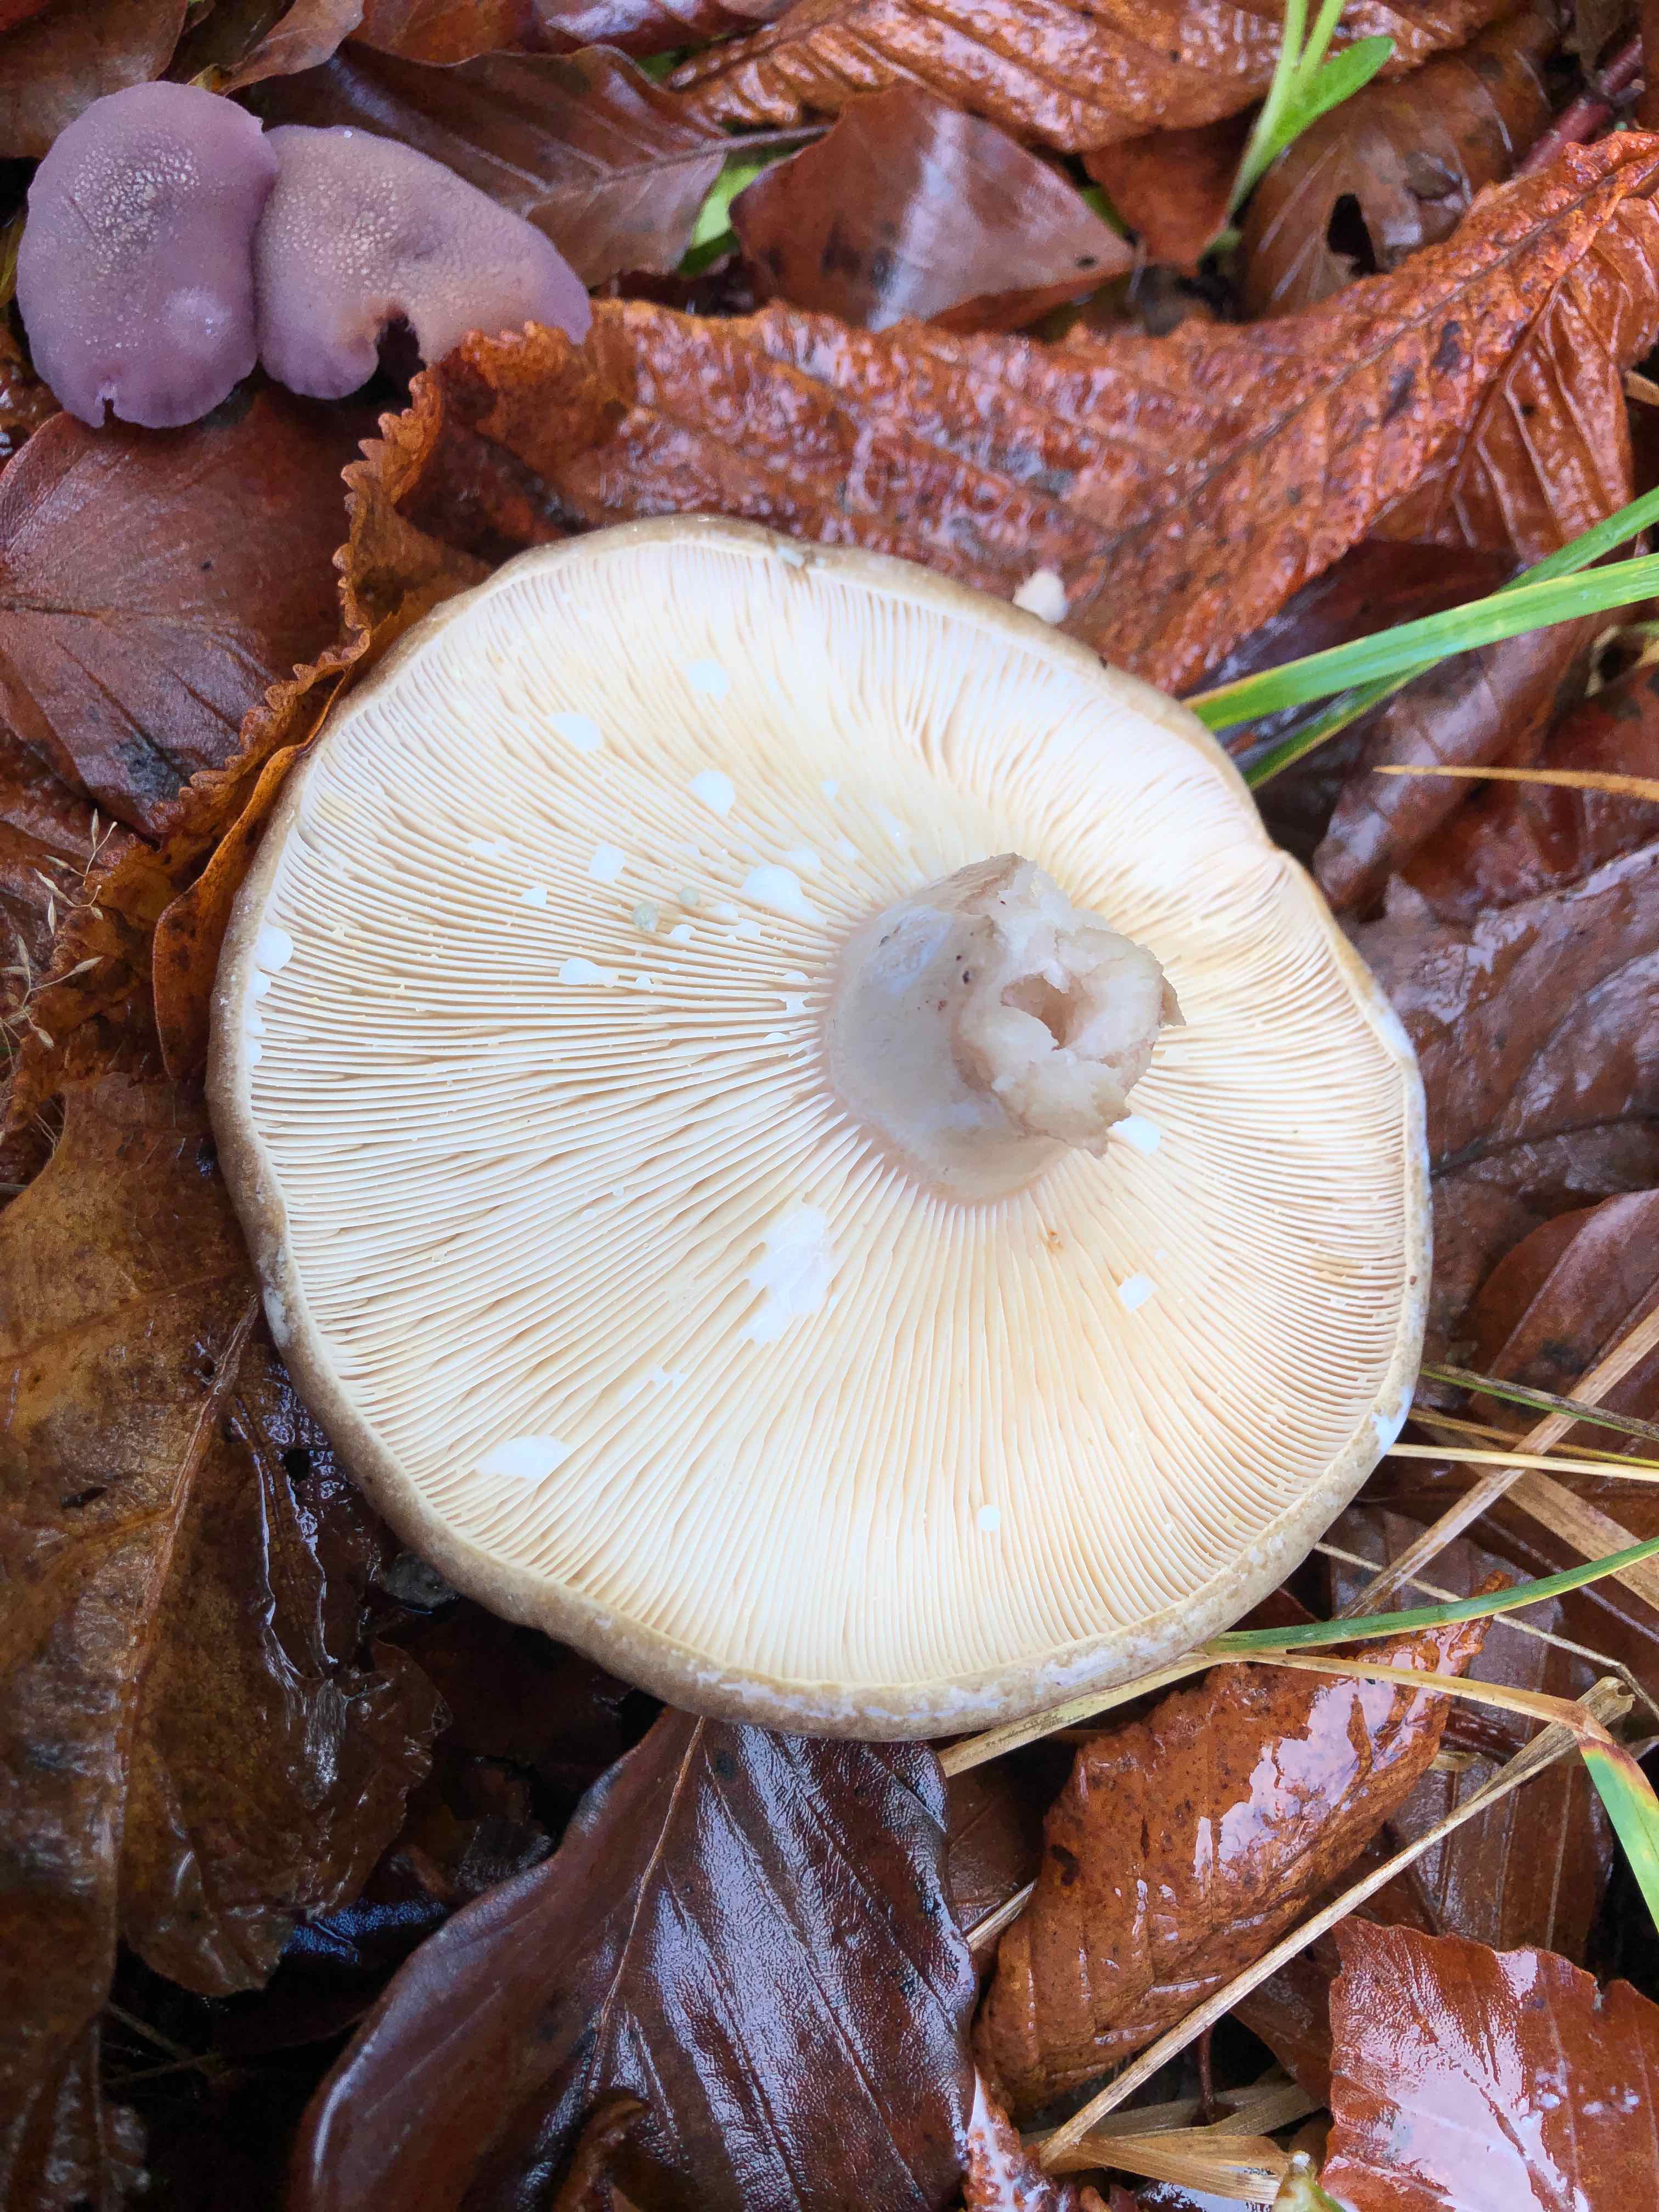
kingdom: Fungi
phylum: Basidiomycota
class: Agaricomycetes
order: Russulales
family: Russulaceae
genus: Lactarius
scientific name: Lactarius blennius
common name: dråbeplettet mælkehat
